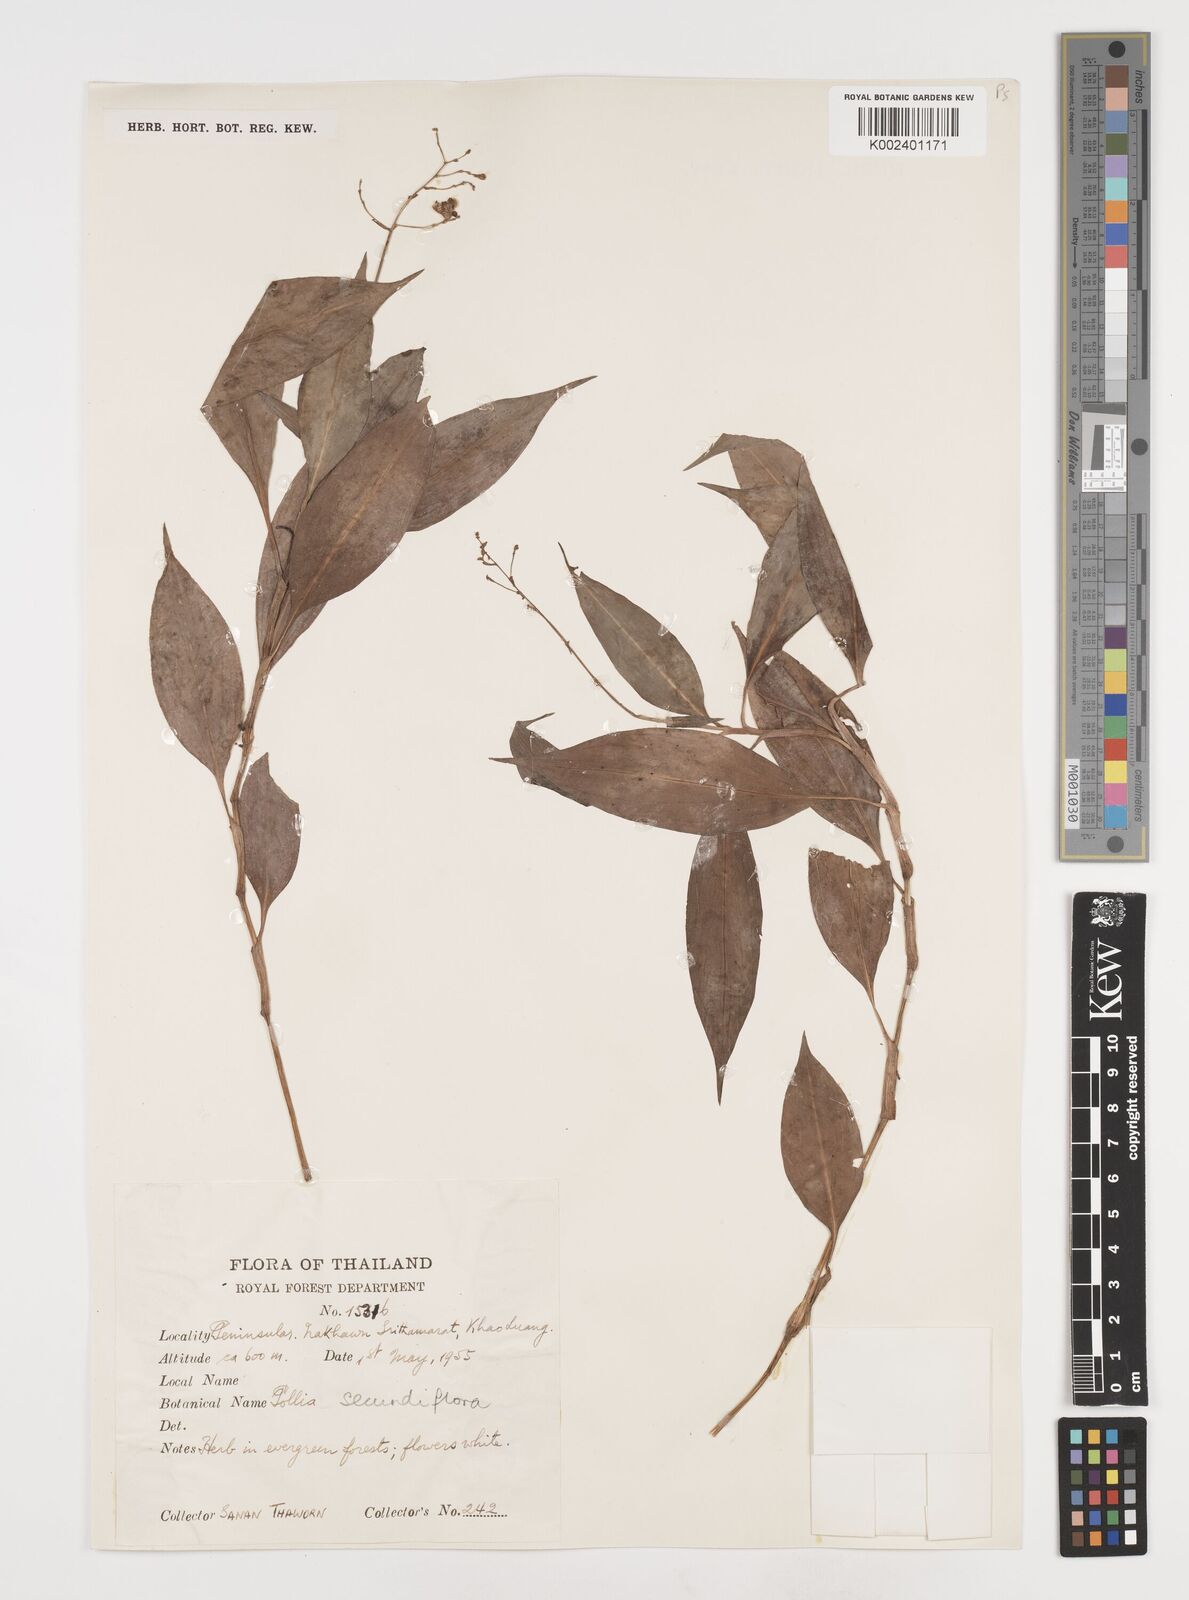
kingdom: Plantae
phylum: Tracheophyta
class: Liliopsida
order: Commelinales
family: Commelinaceae
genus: Pollia
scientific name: Pollia secundiflora
